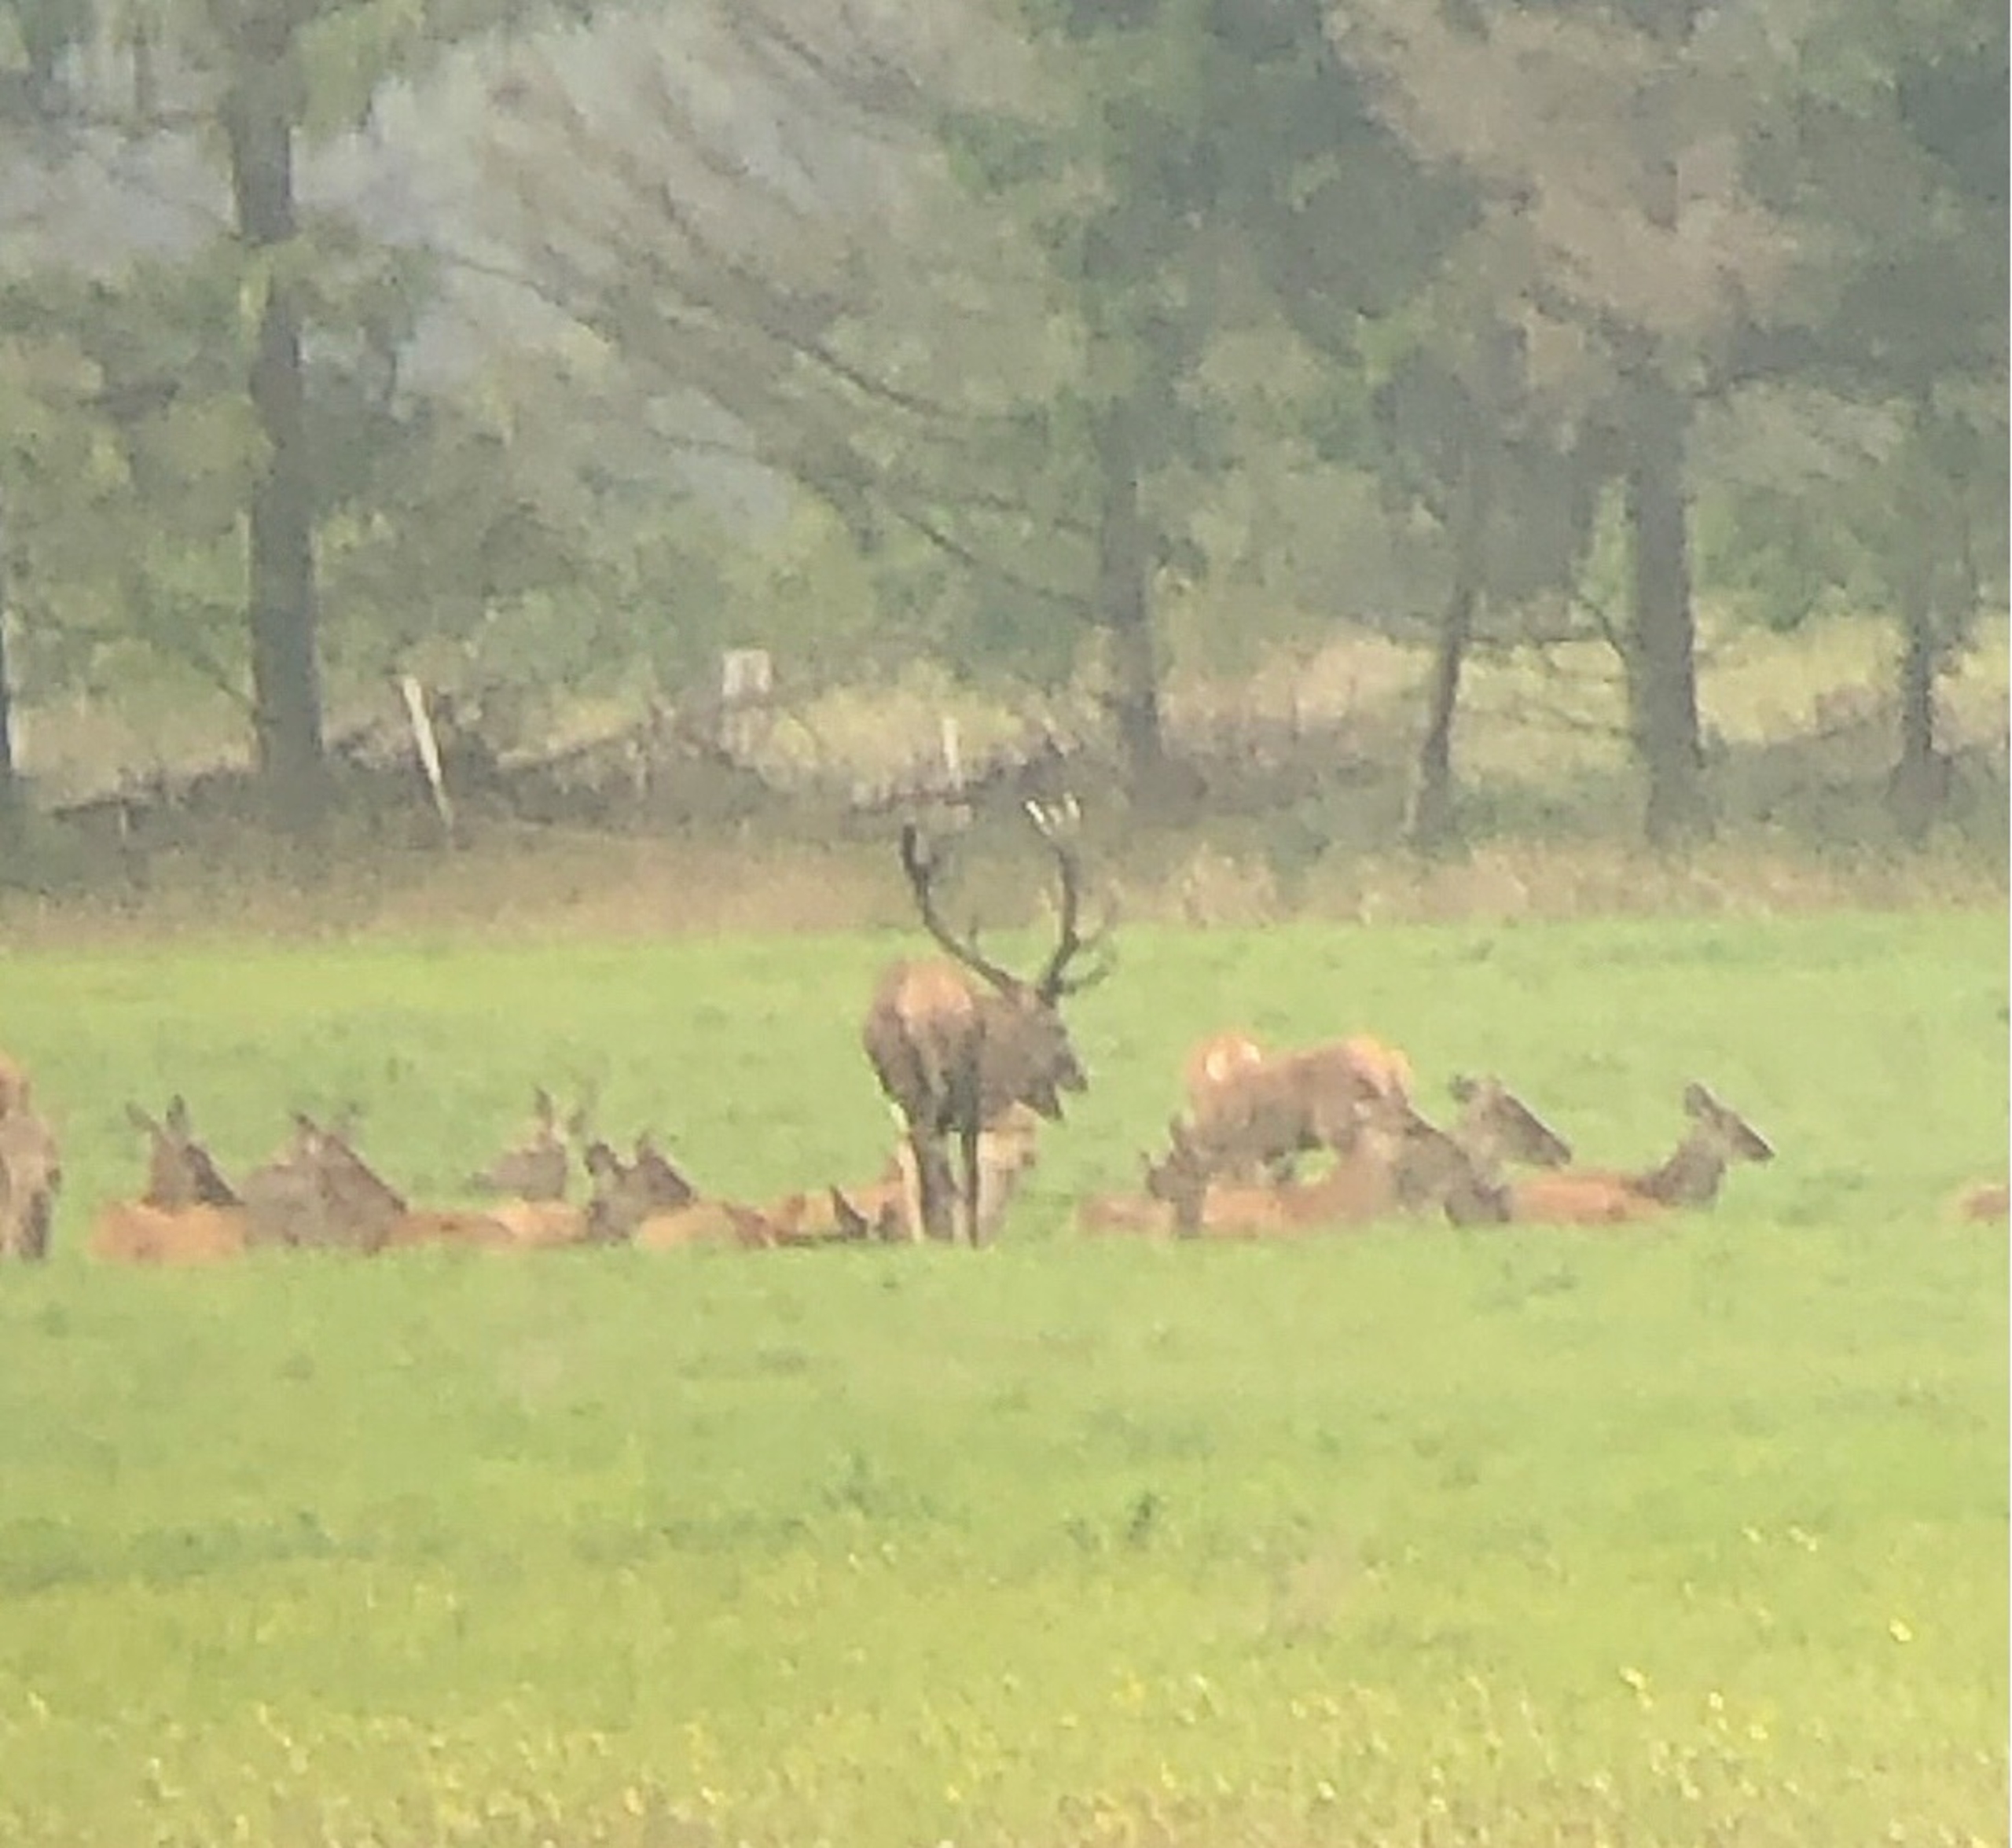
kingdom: Animalia
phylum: Chordata
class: Mammalia
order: Artiodactyla
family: Cervidae
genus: Cervus
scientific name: Cervus elaphus
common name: Krondyr
